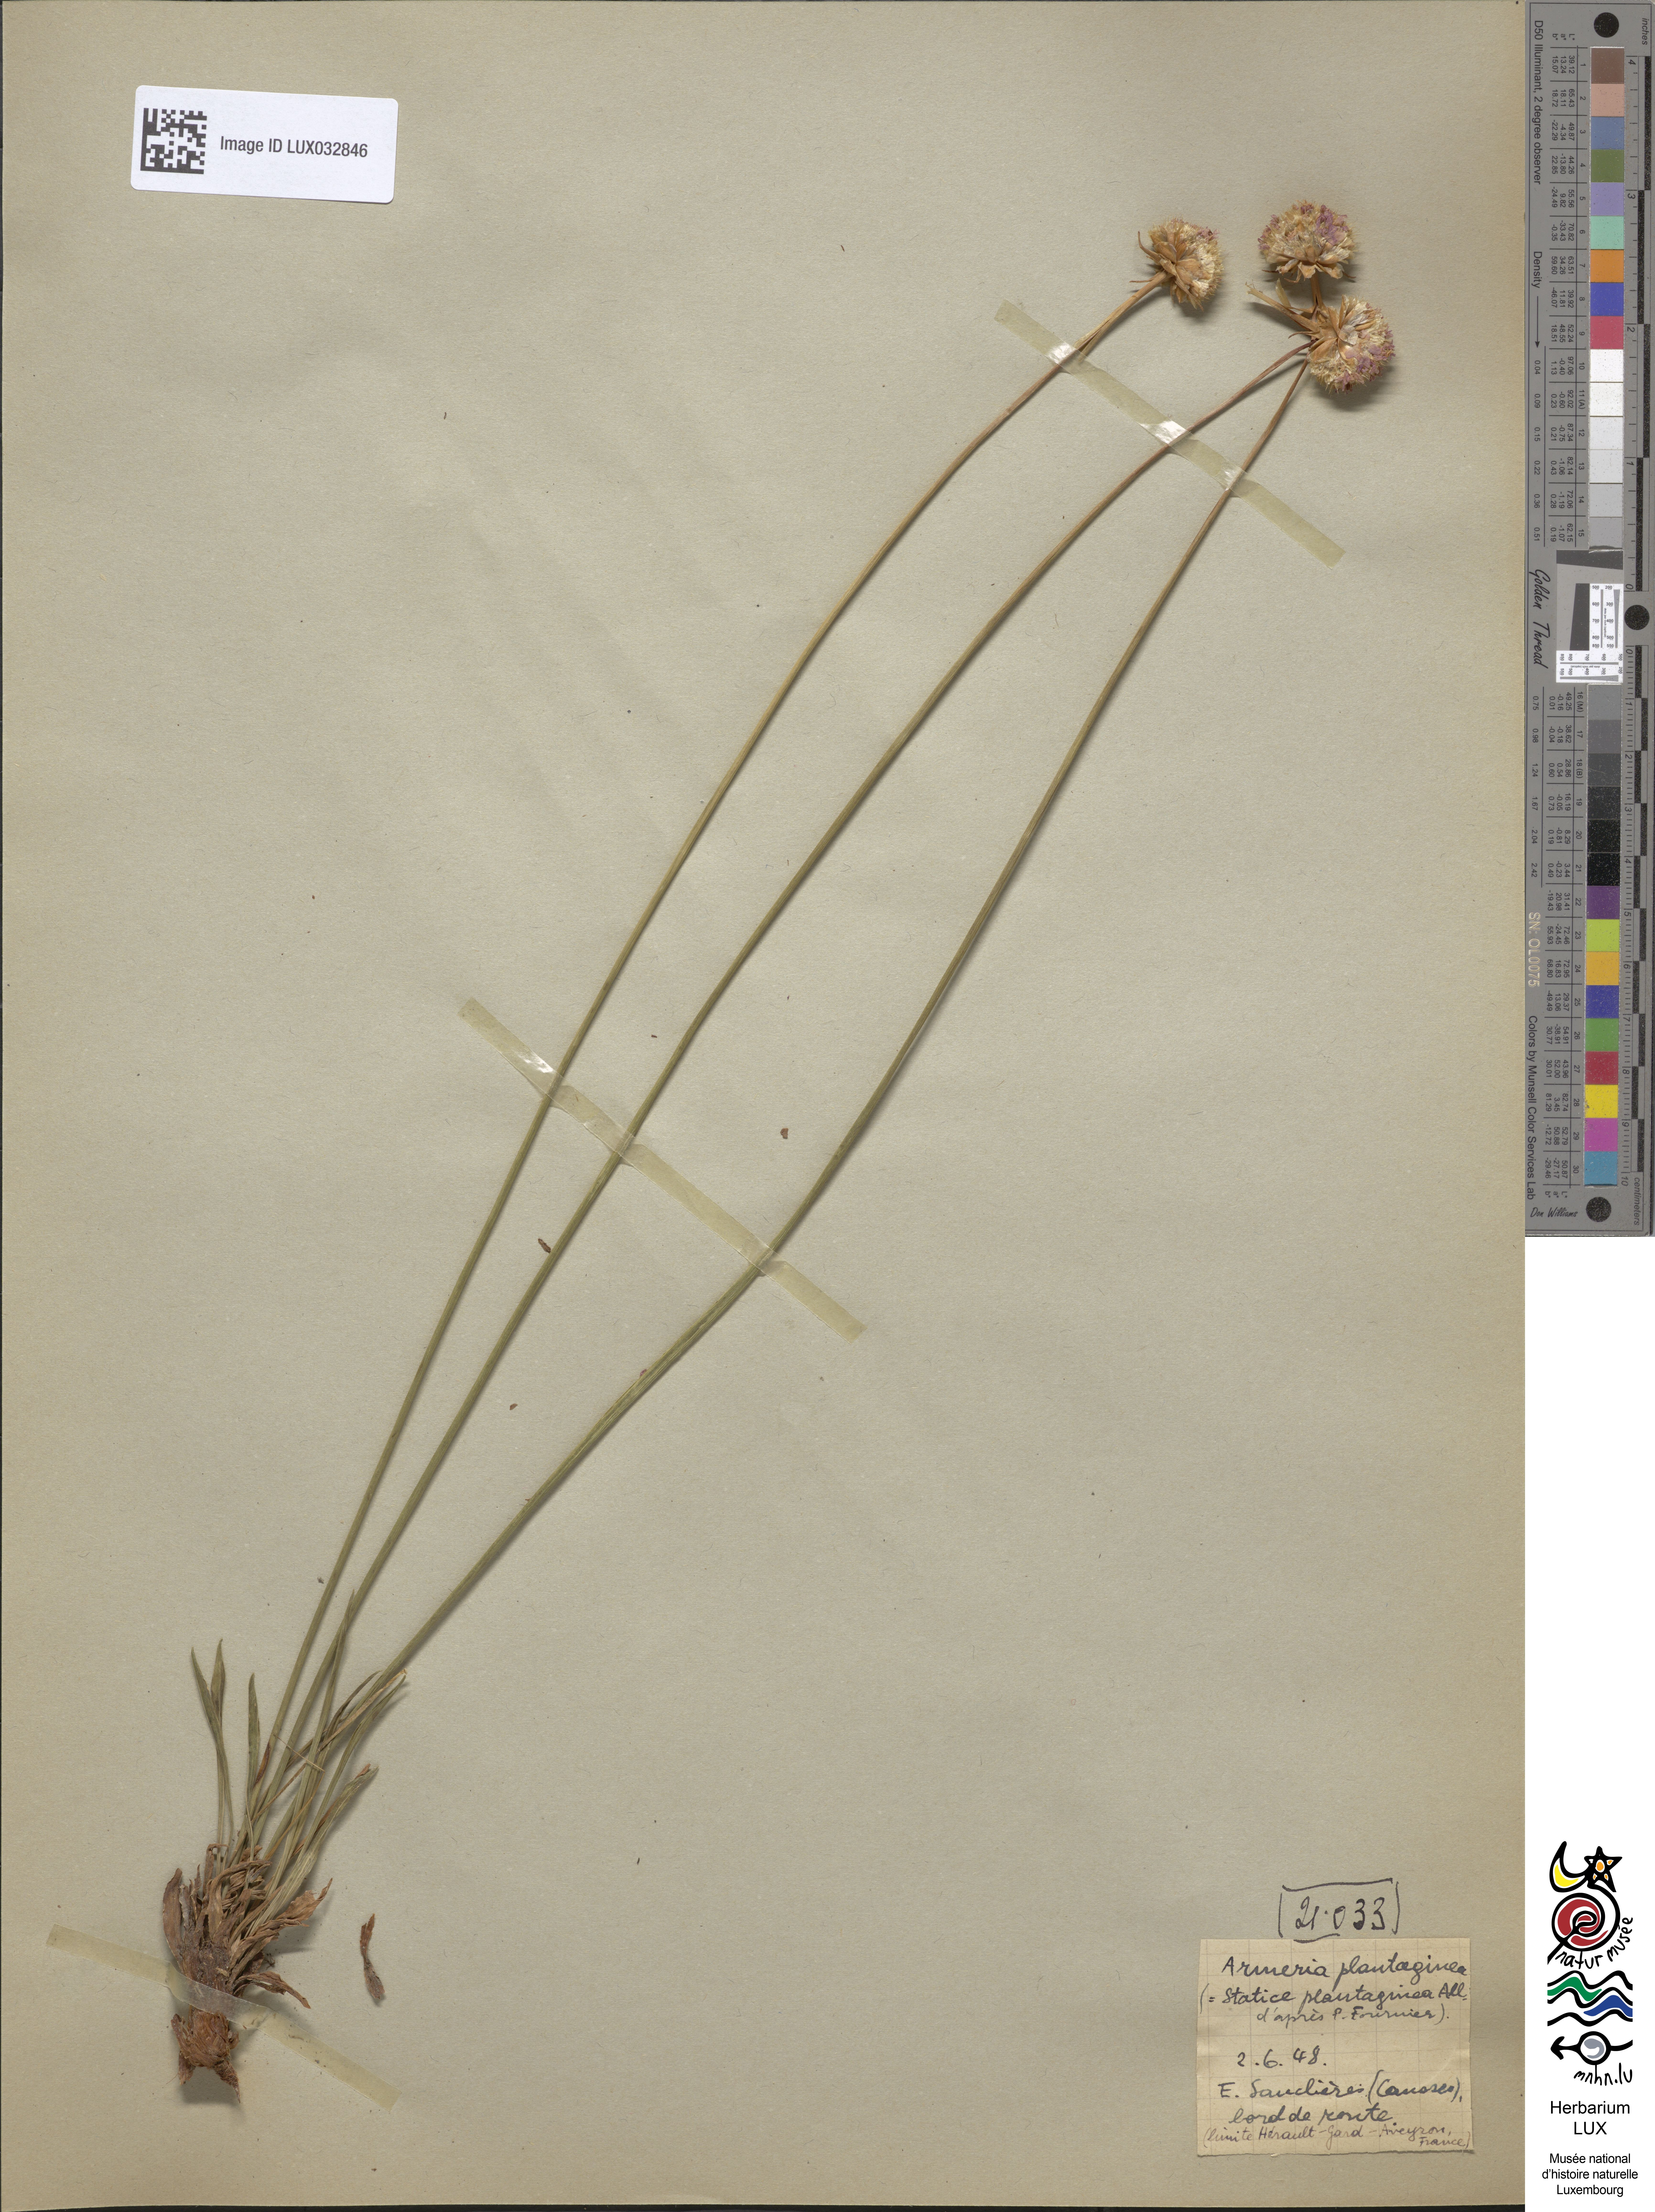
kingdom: Plantae
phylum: Tracheophyta
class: Magnoliopsida
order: Caryophyllales
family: Plumbaginaceae
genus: Armeria
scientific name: Armeria alliacea
